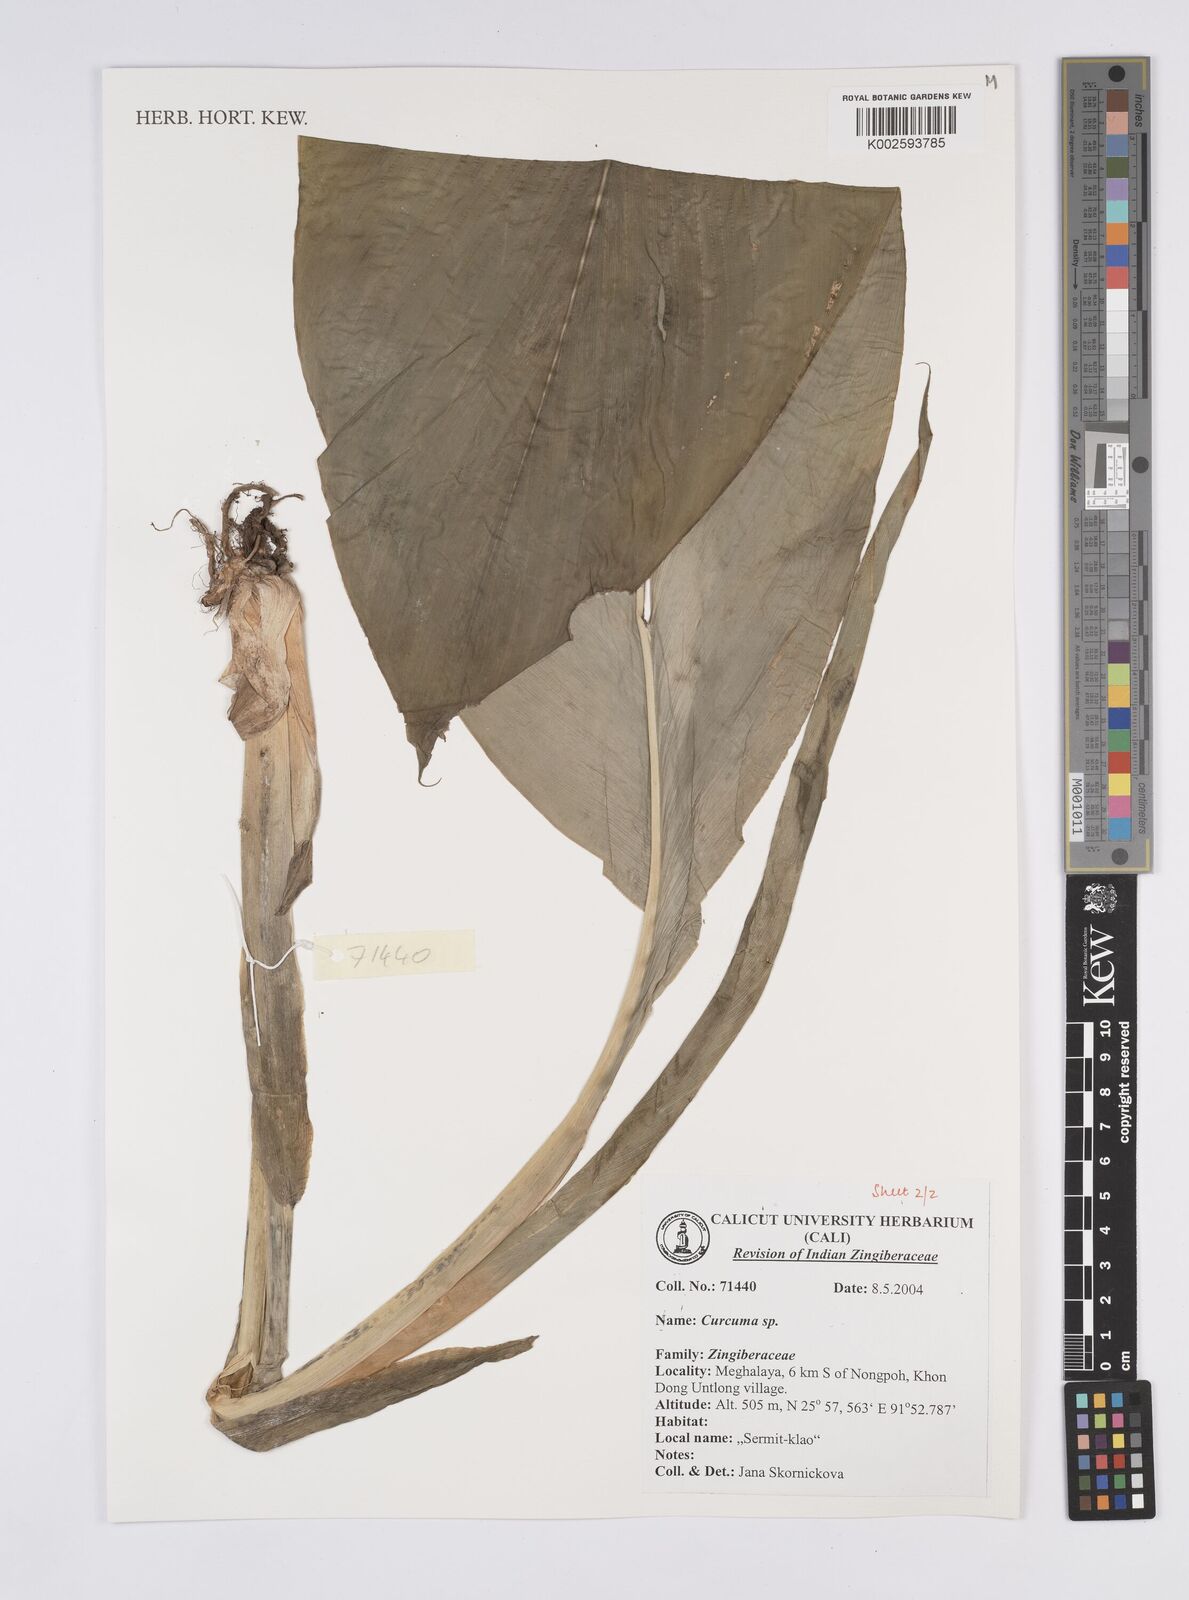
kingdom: Plantae
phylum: Tracheophyta
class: Liliopsida
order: Zingiberales
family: Zingiberaceae
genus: Curcuma
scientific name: Curcuma
